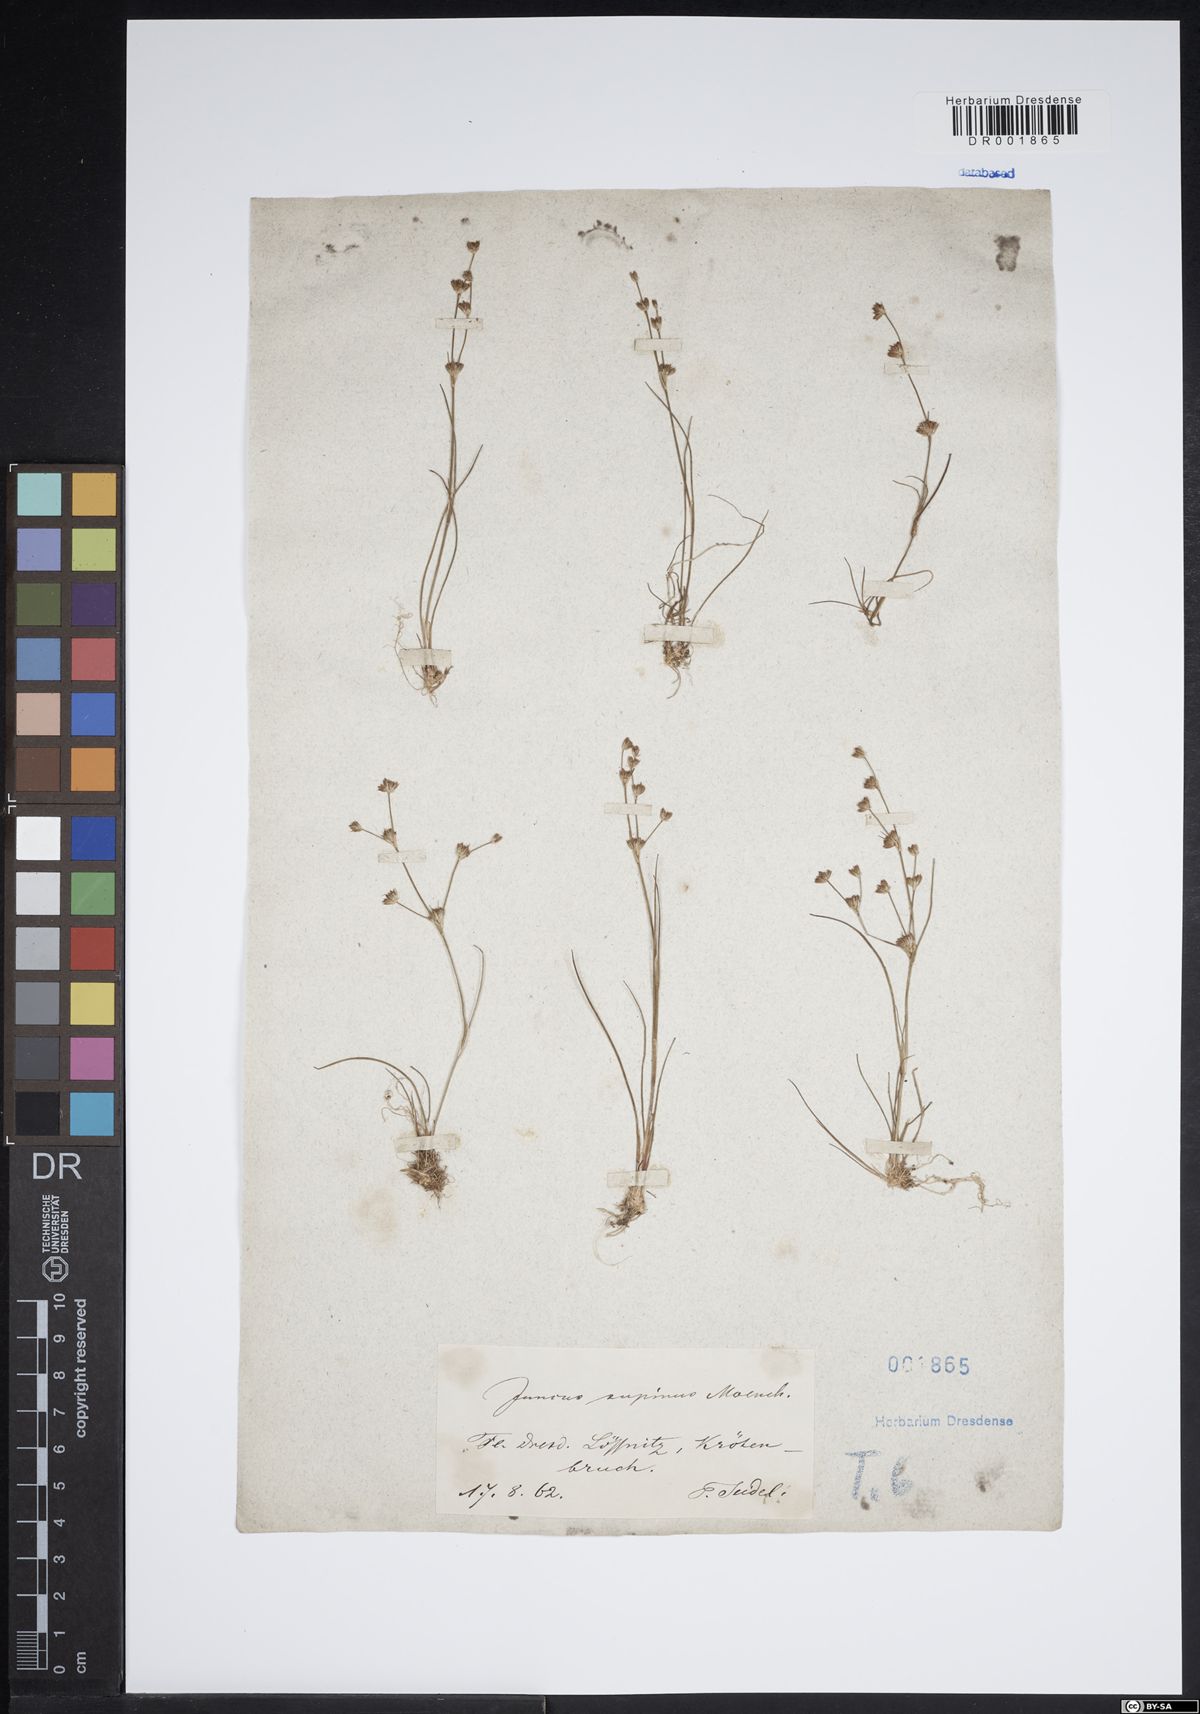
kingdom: Plantae
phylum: Tracheophyta
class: Liliopsida
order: Poales
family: Juncaceae
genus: Juncus
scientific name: Juncus bulbosus
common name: Bulbous rush
